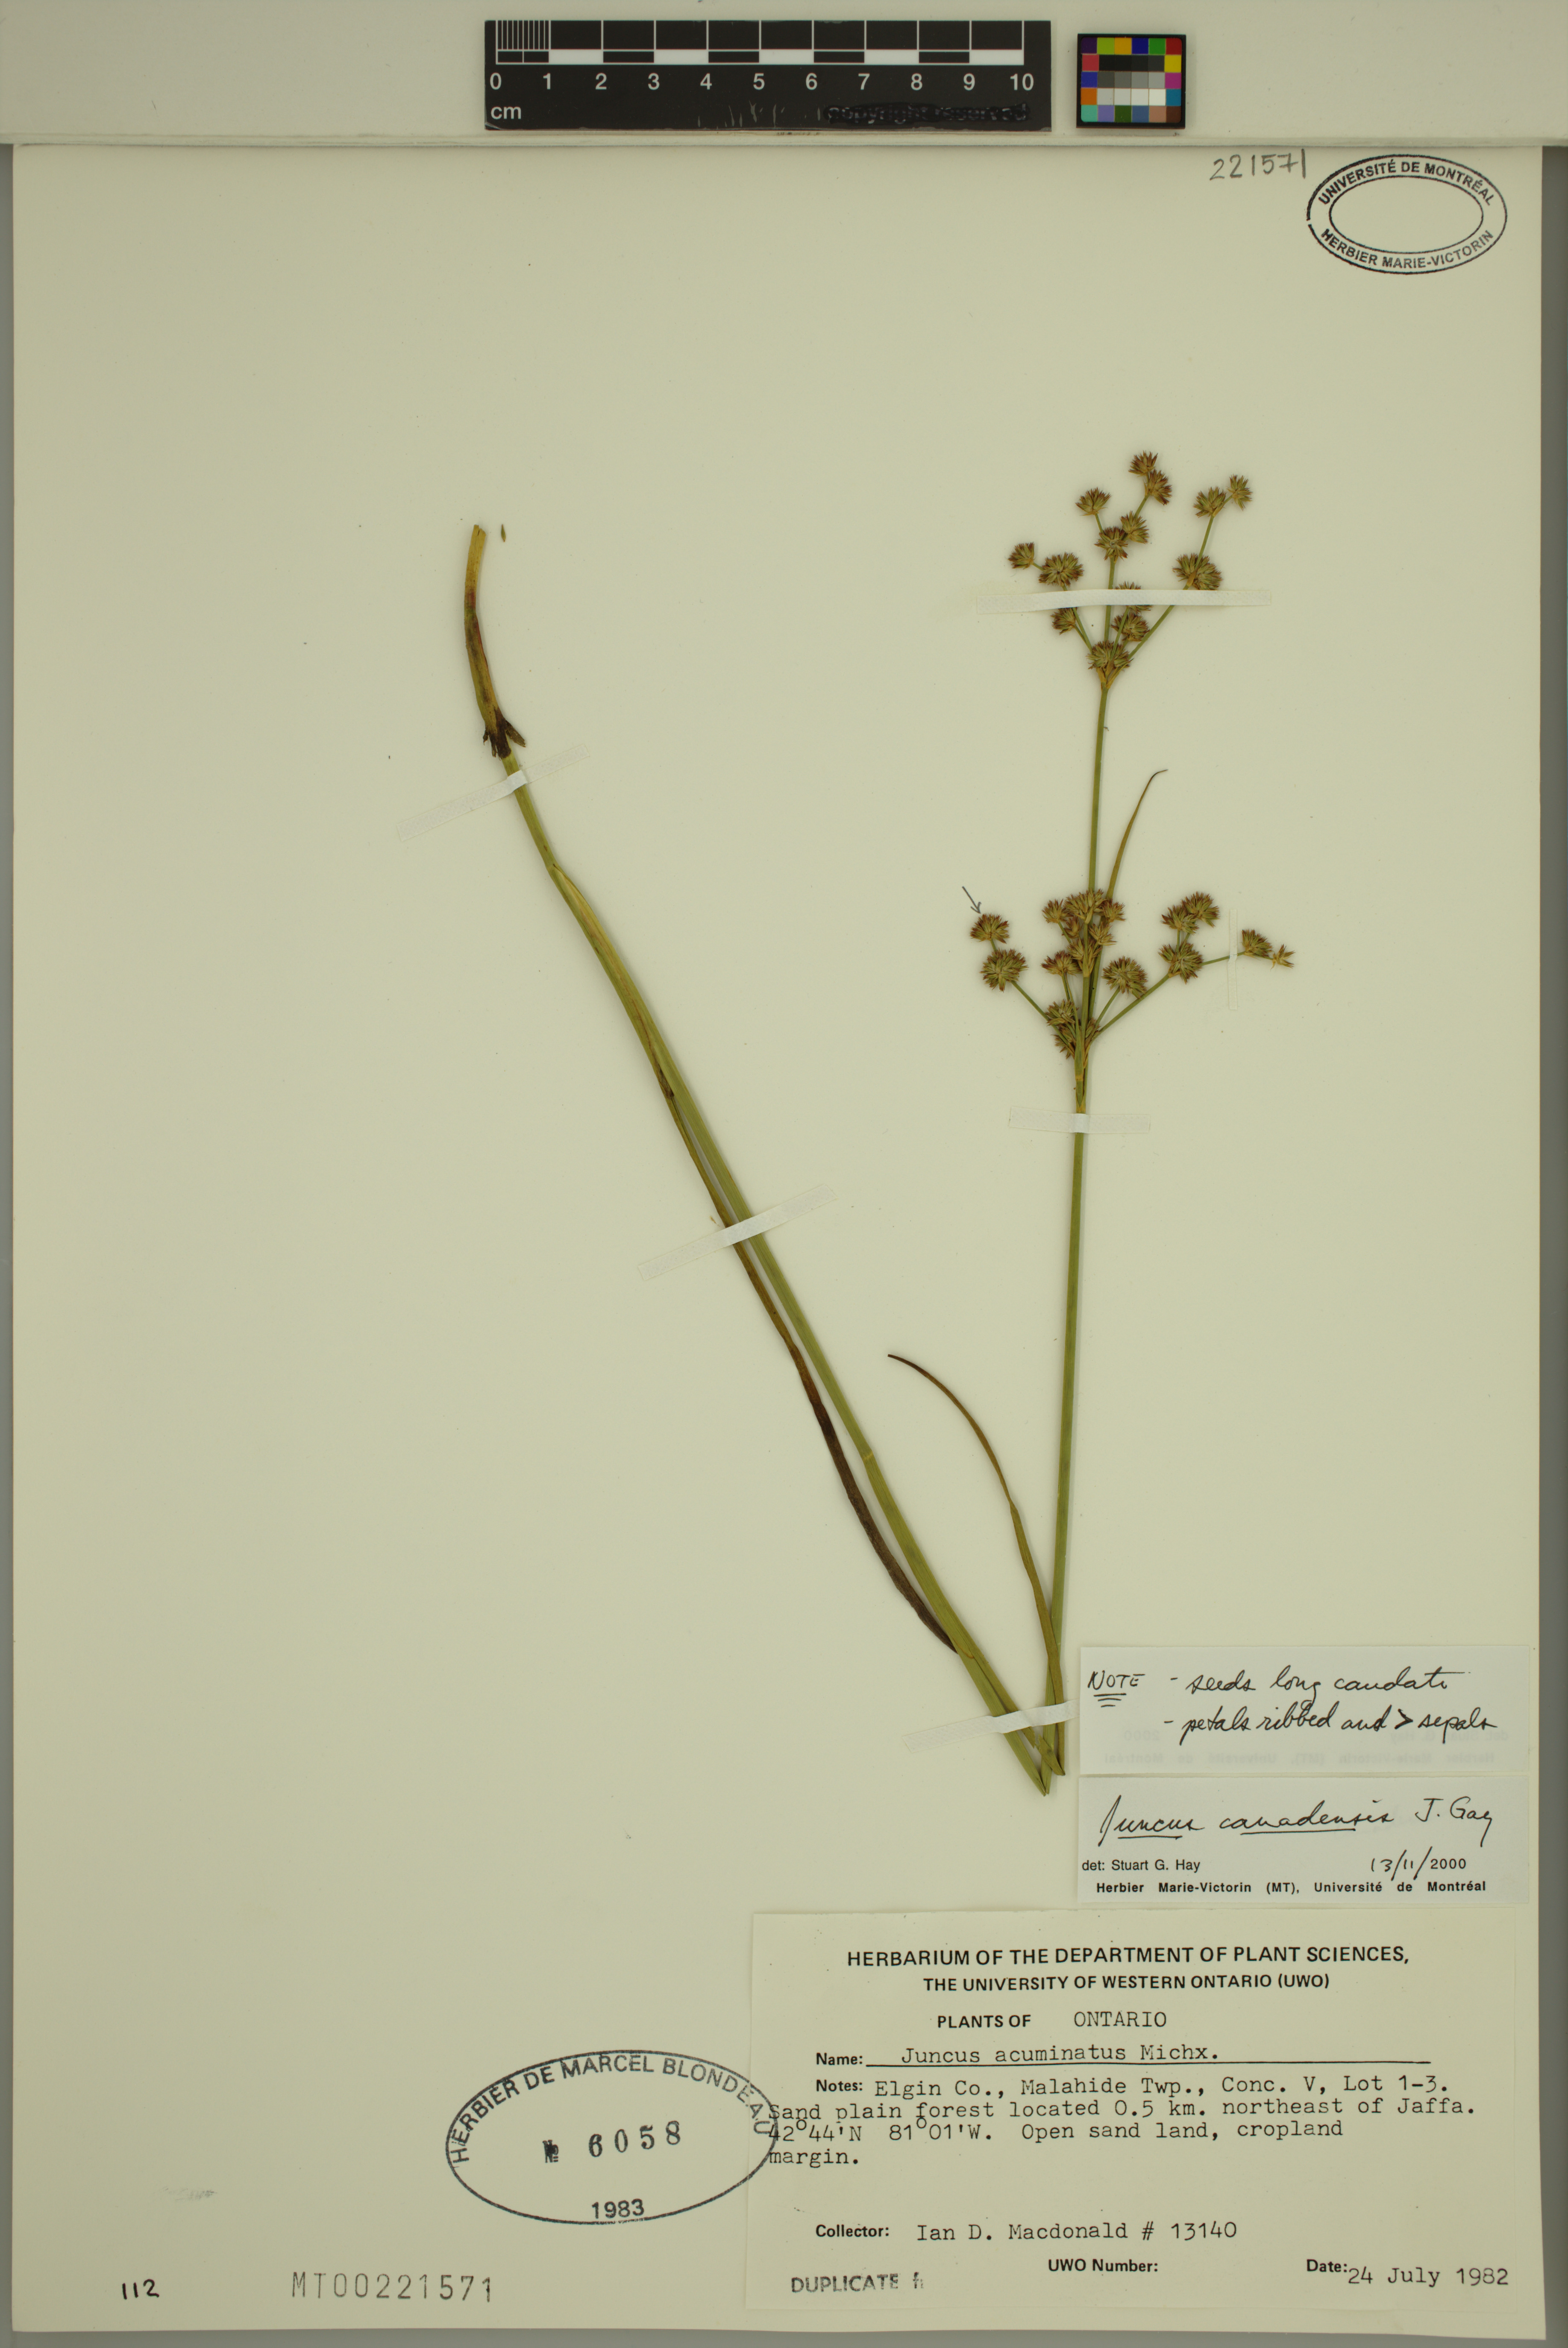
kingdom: Plantae
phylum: Tracheophyta
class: Liliopsida
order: Poales
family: Juncaceae
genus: Juncus
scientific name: Juncus canadensis
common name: Canada rush
